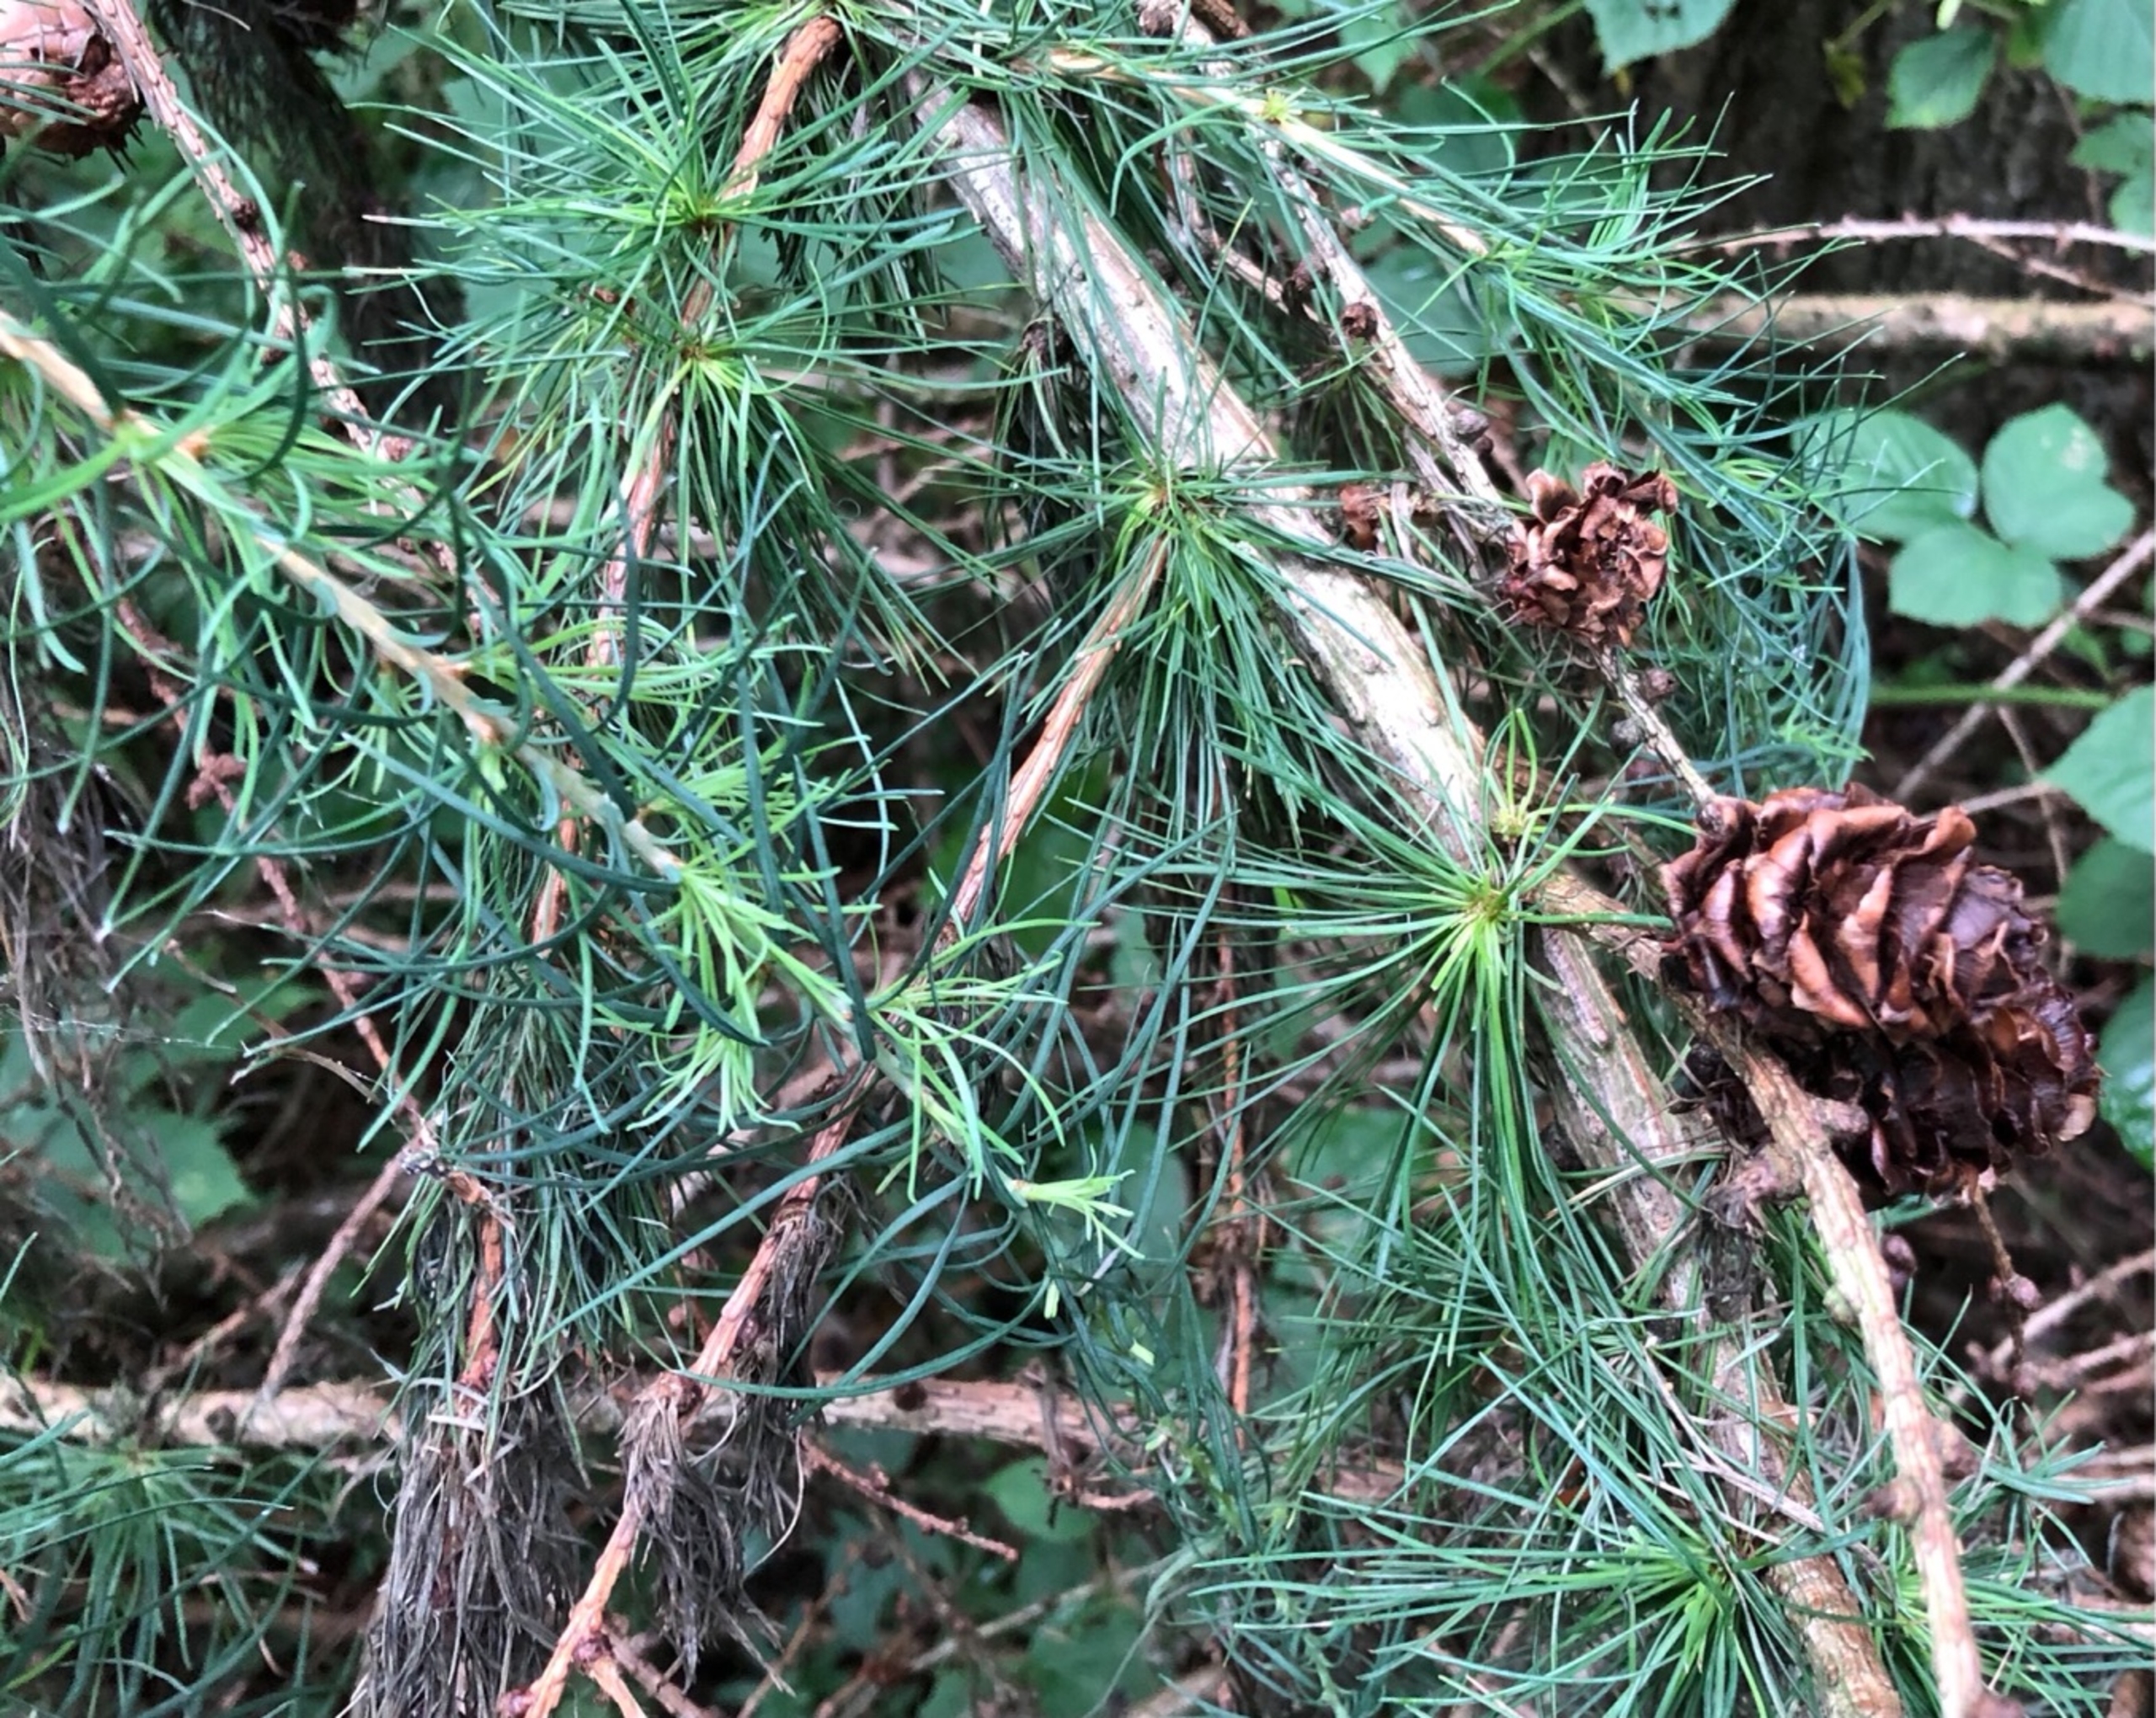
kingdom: Plantae
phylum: Tracheophyta
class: Pinopsida
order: Pinales
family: Pinaceae
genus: Larix
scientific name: Larix kaempferi
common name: Japansk lærk
